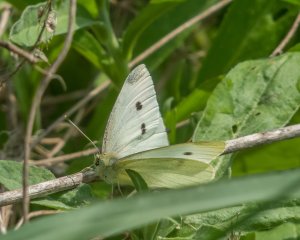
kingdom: Animalia
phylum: Arthropoda
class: Insecta
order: Lepidoptera
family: Pieridae
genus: Pieris
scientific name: Pieris rapae
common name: Cabbage White
